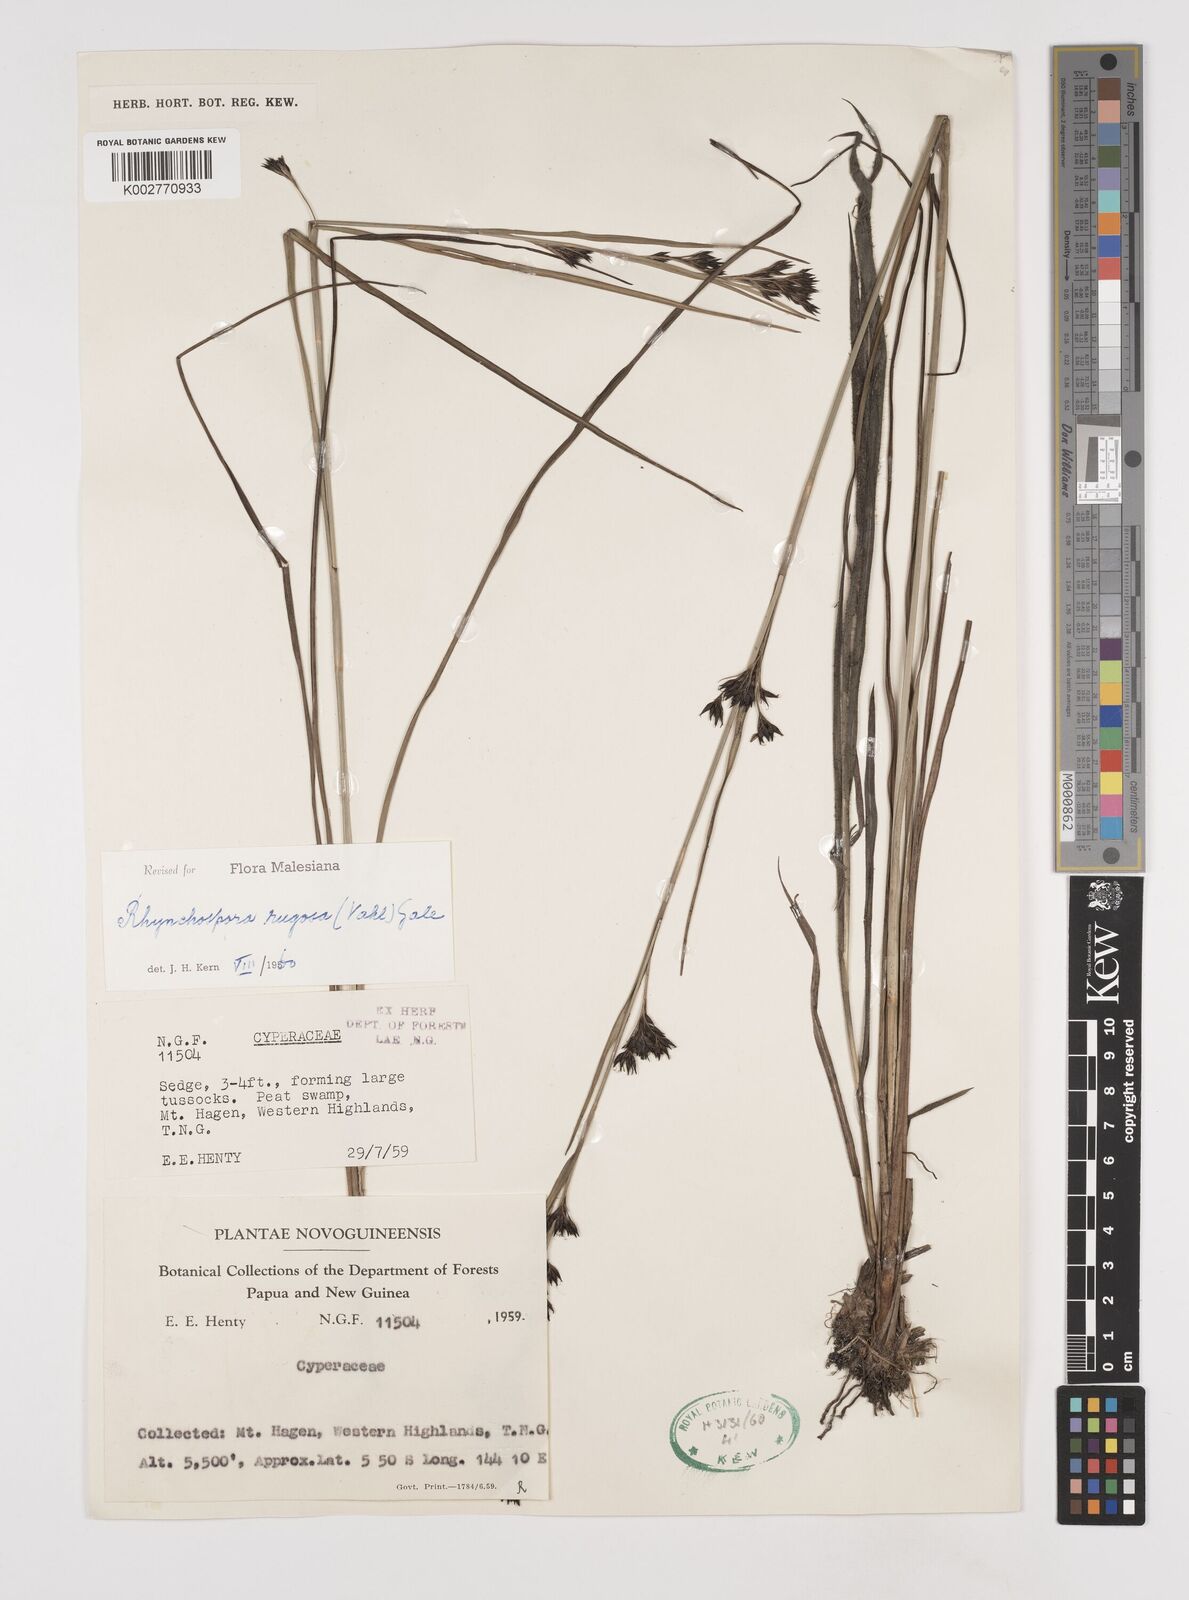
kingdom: Plantae
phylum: Tracheophyta
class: Liliopsida
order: Poales
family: Cyperaceae
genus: Rhynchospora
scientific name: Rhynchospora rugosa
